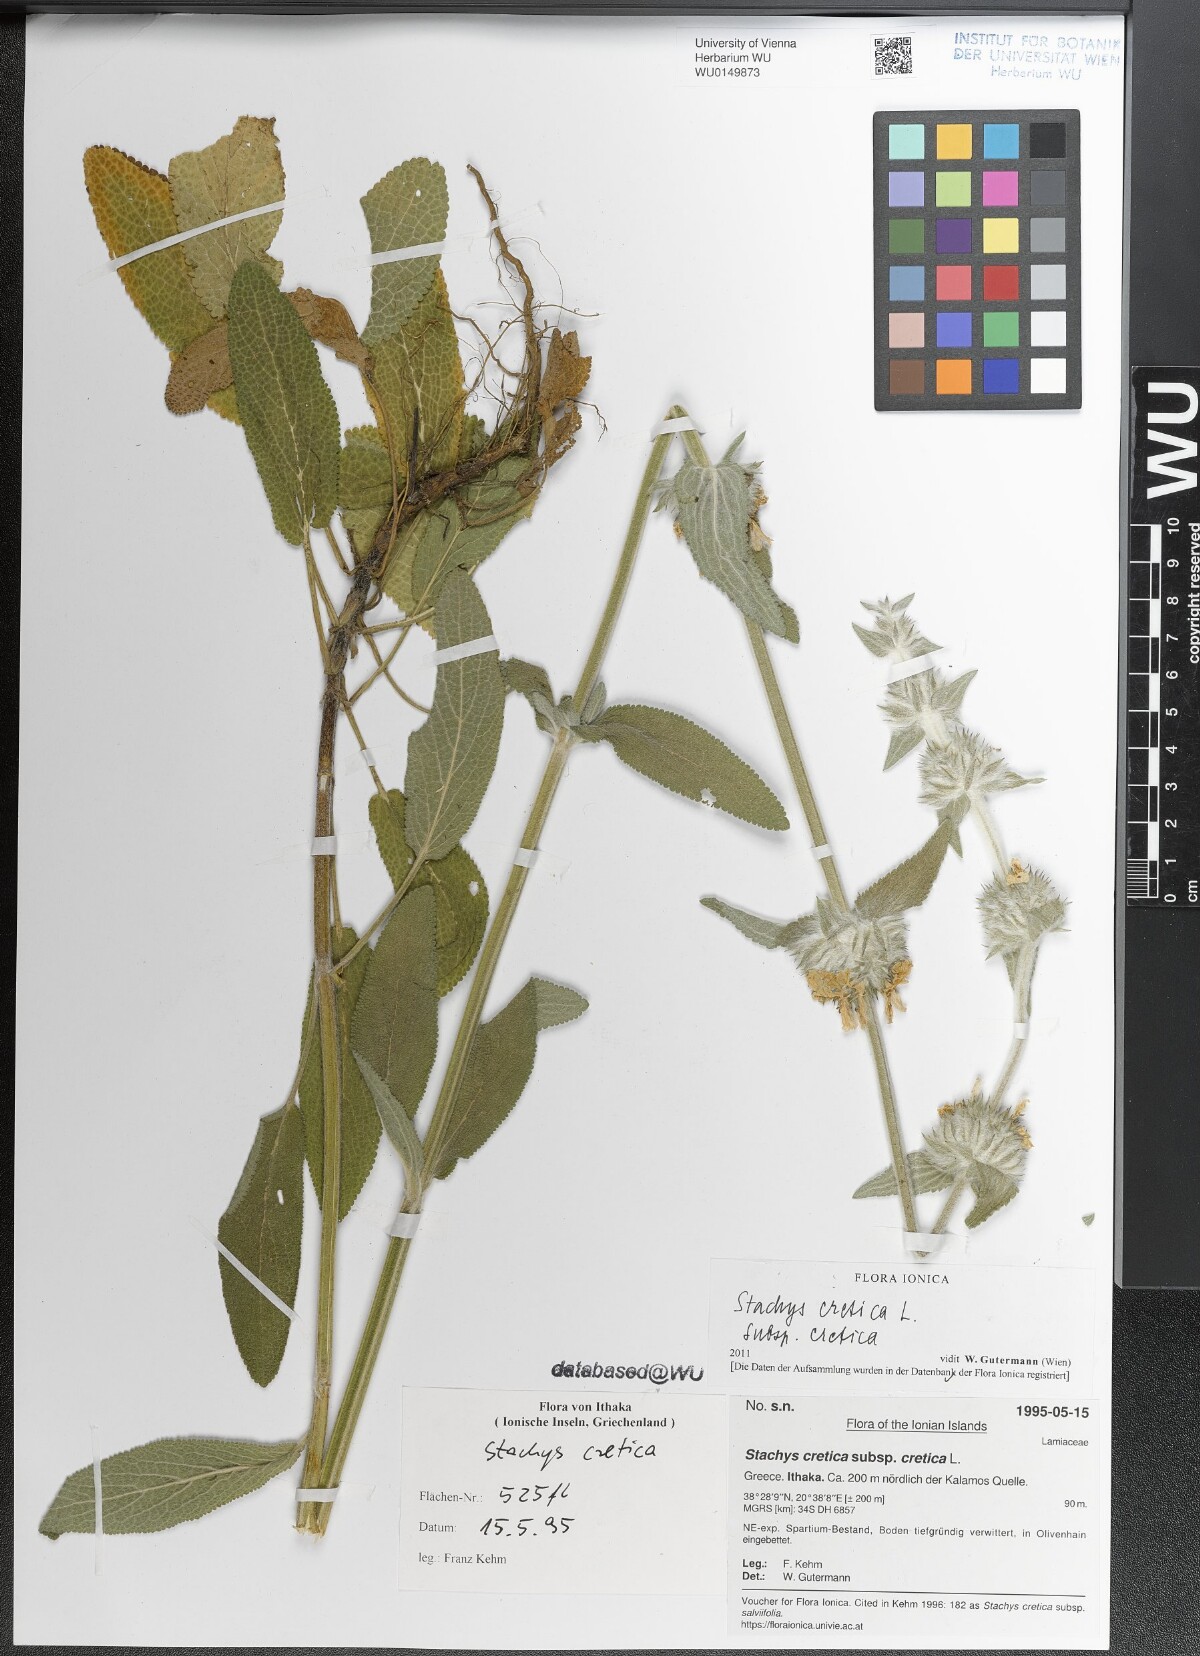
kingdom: Plantae
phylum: Tracheophyta
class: Magnoliopsida
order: Lamiales
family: Lamiaceae
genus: Stachys
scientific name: Stachys cretica
